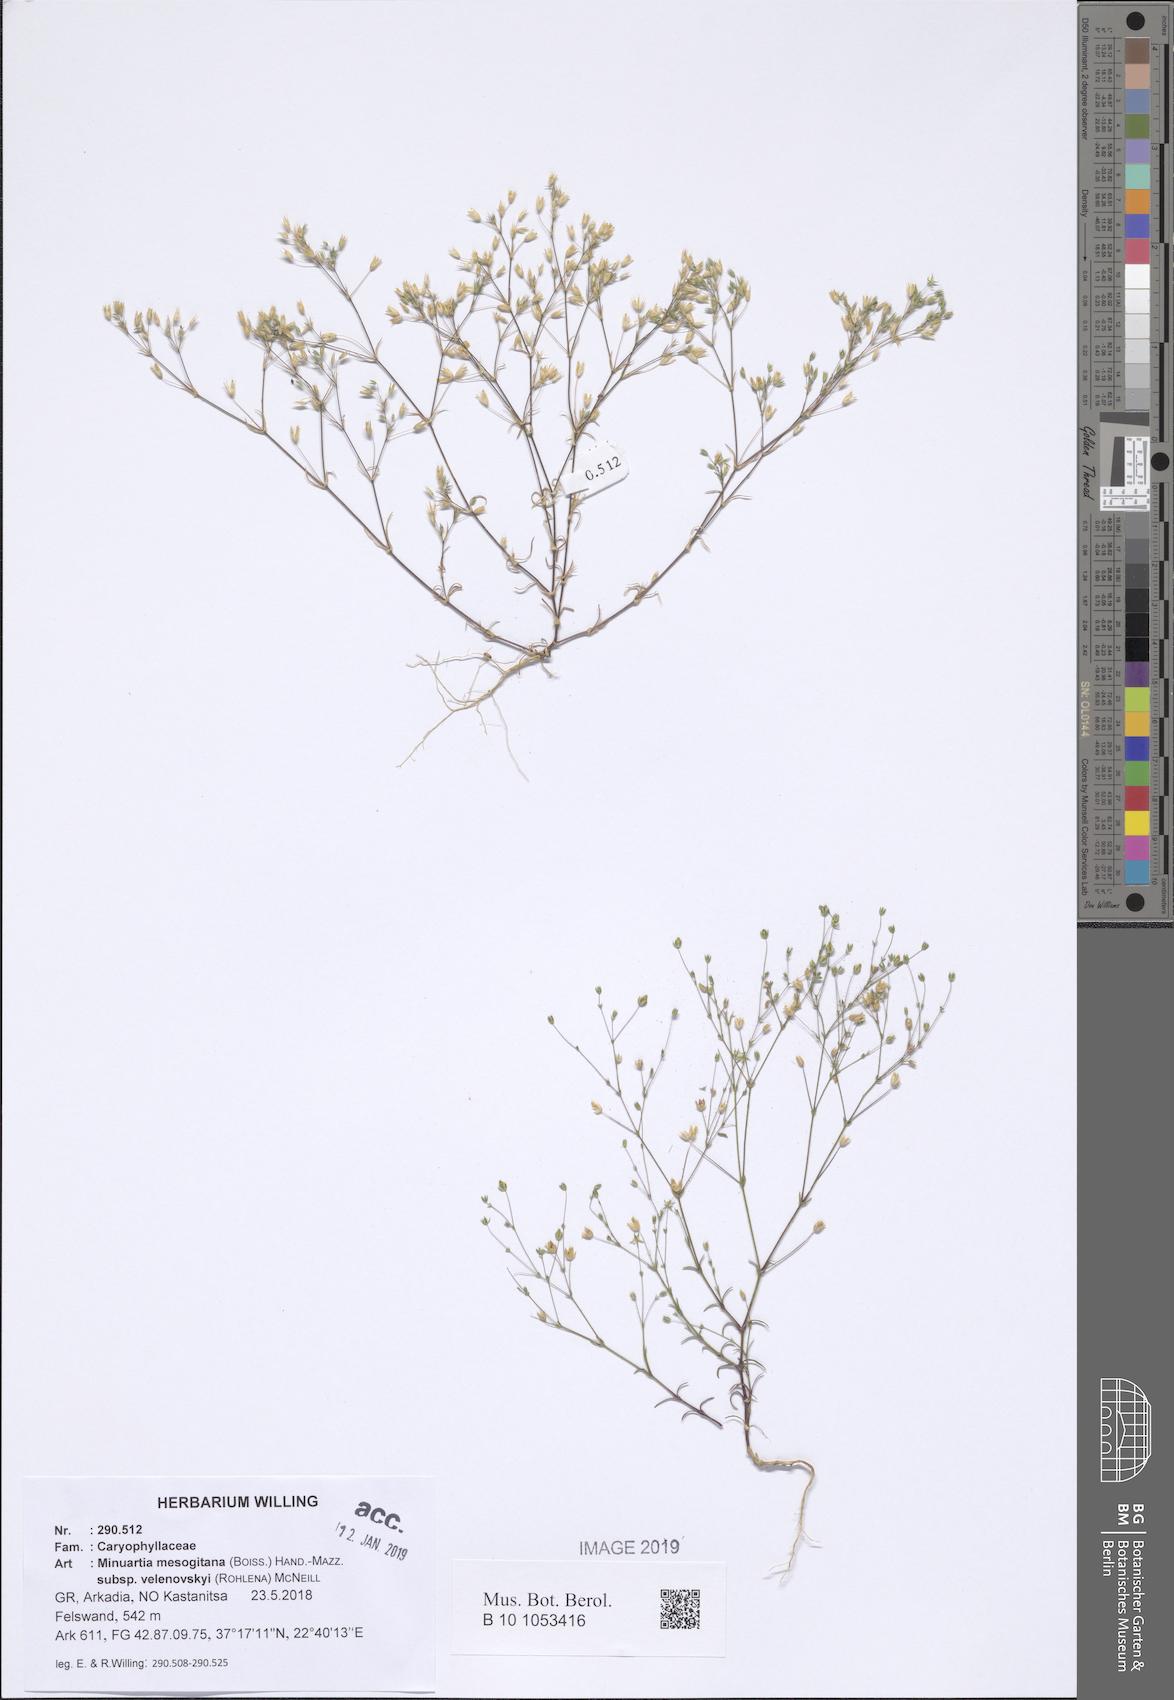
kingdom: Plantae
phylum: Tracheophyta
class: Magnoliopsida
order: Caryophyllales
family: Caryophyllaceae
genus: Sabulina
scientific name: Sabulina velenovskyi
